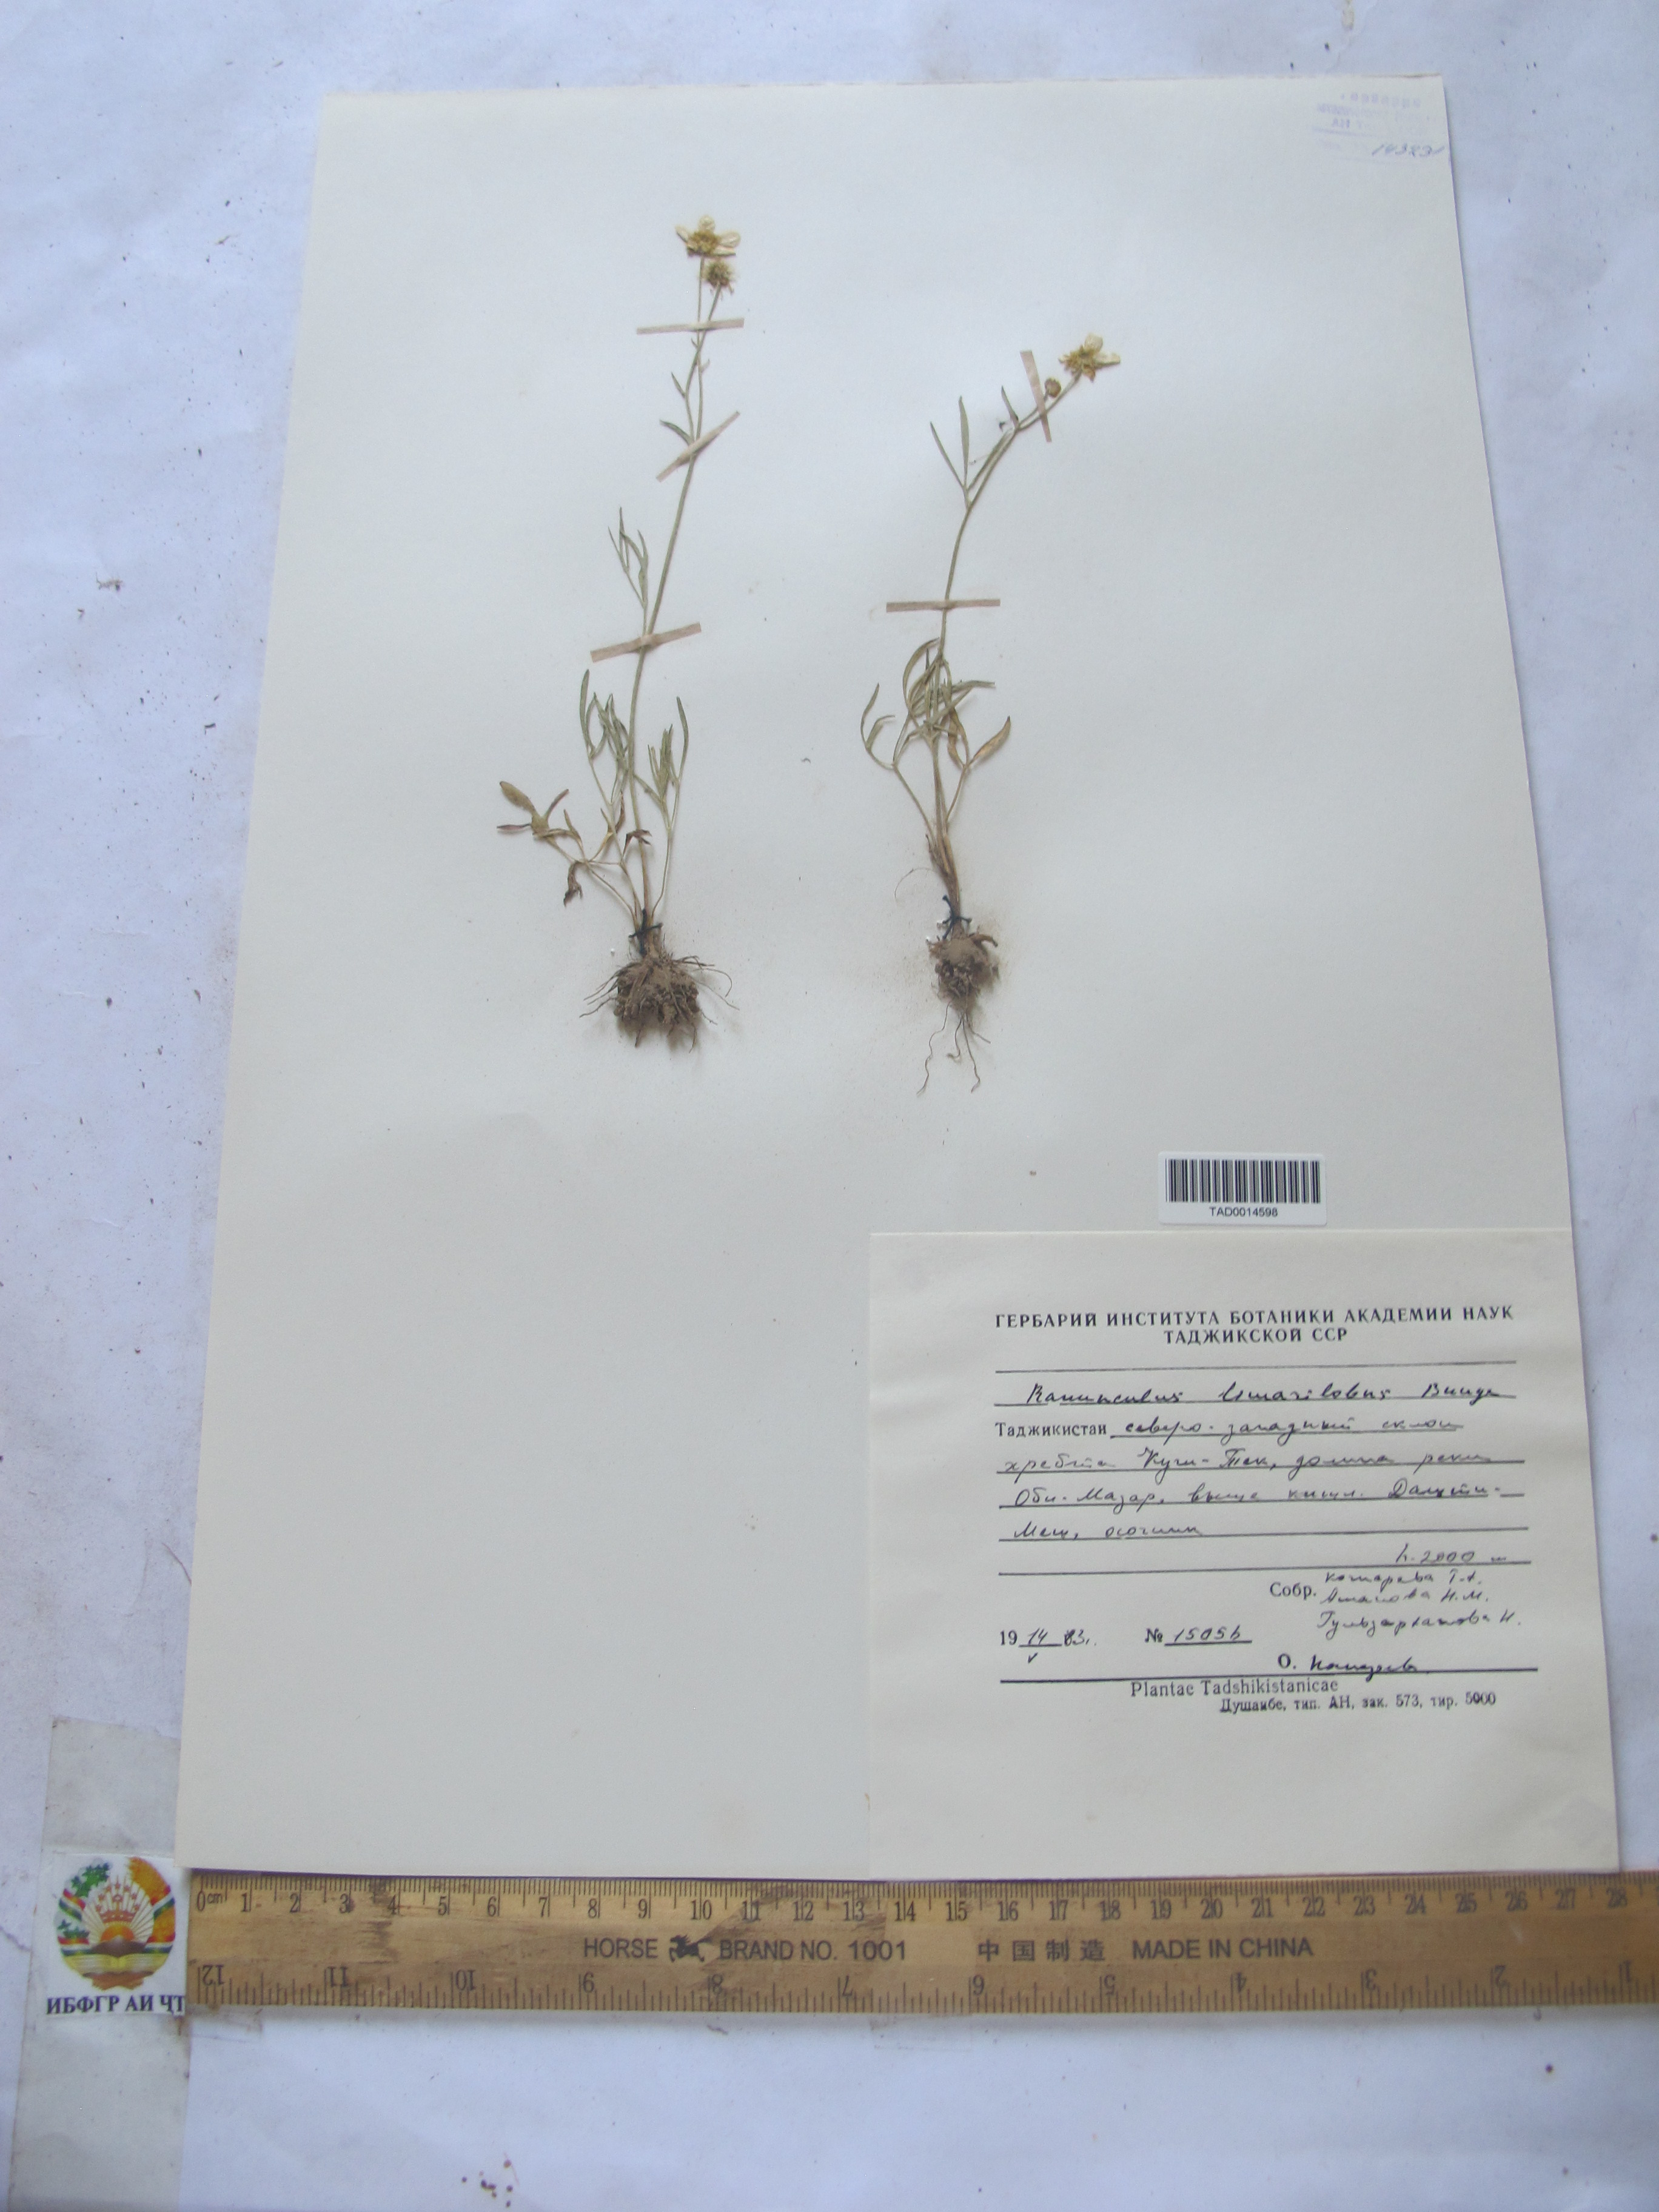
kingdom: Plantae
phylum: Tracheophyta
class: Magnoliopsida
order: Ranunculales
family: Ranunculaceae
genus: Ranunculus
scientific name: Ranunculus linearilobus
